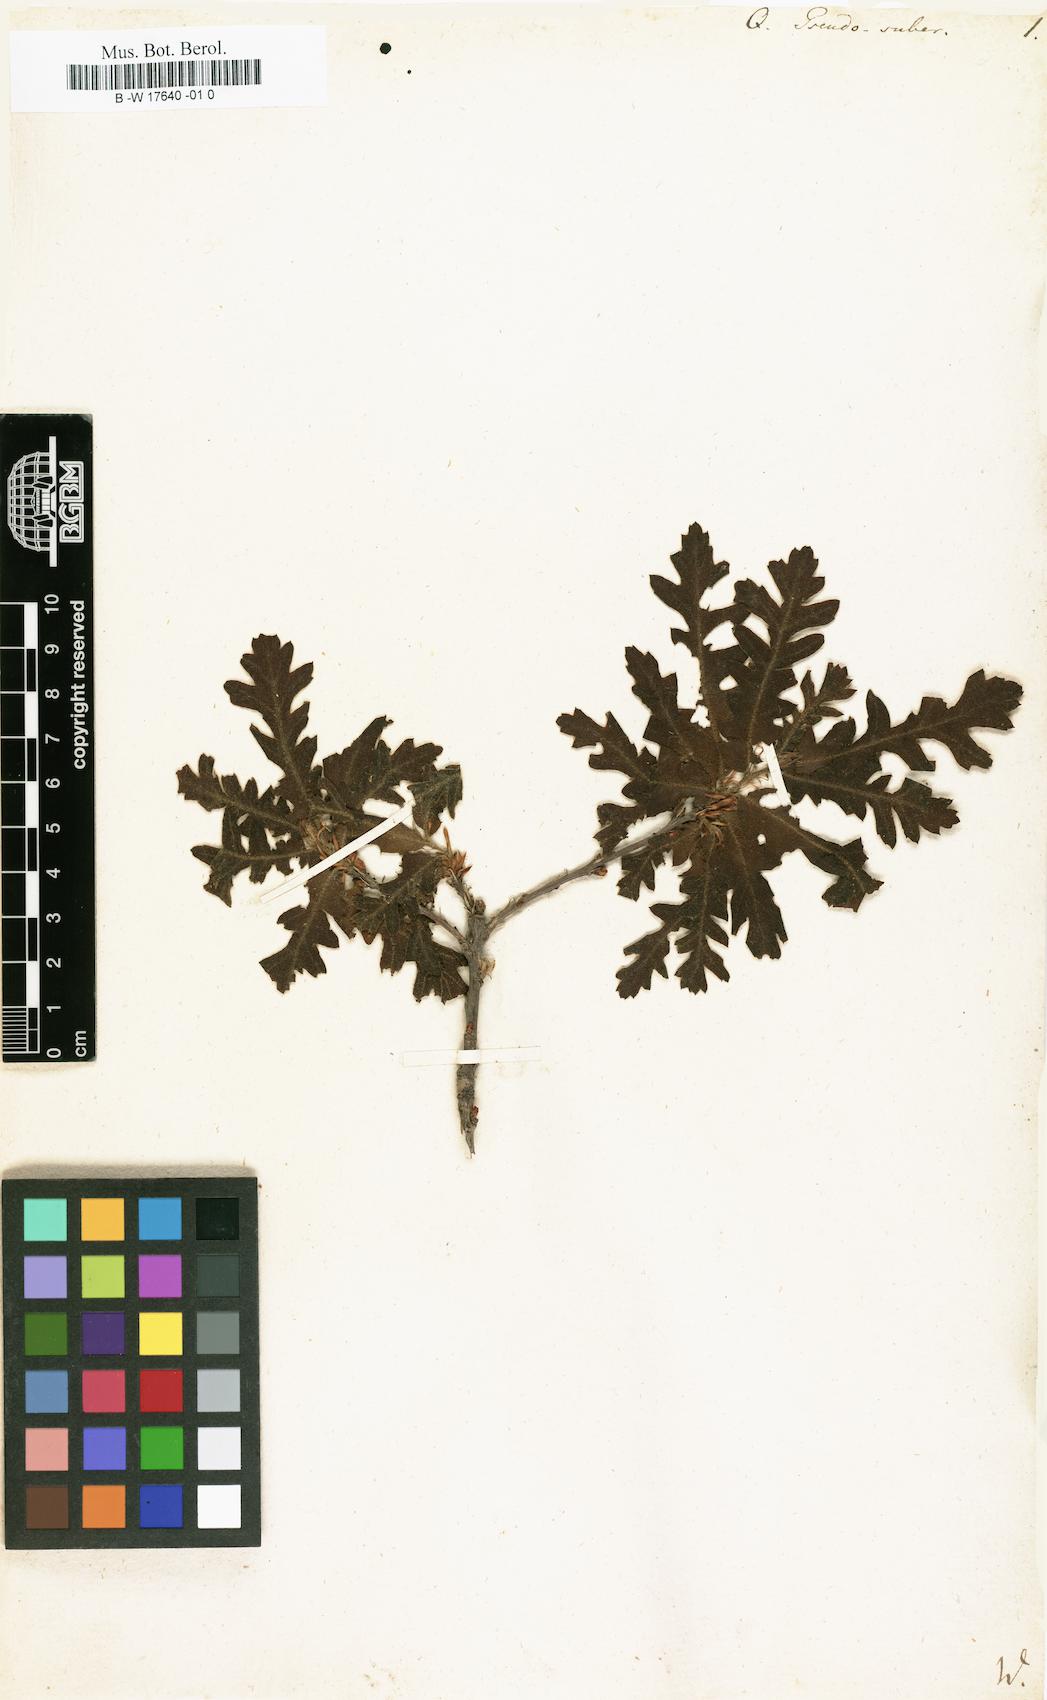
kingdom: Plantae
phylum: Tracheophyta
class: Magnoliopsida
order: Fagales
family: Fagaceae
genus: Quercus
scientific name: Quercus
